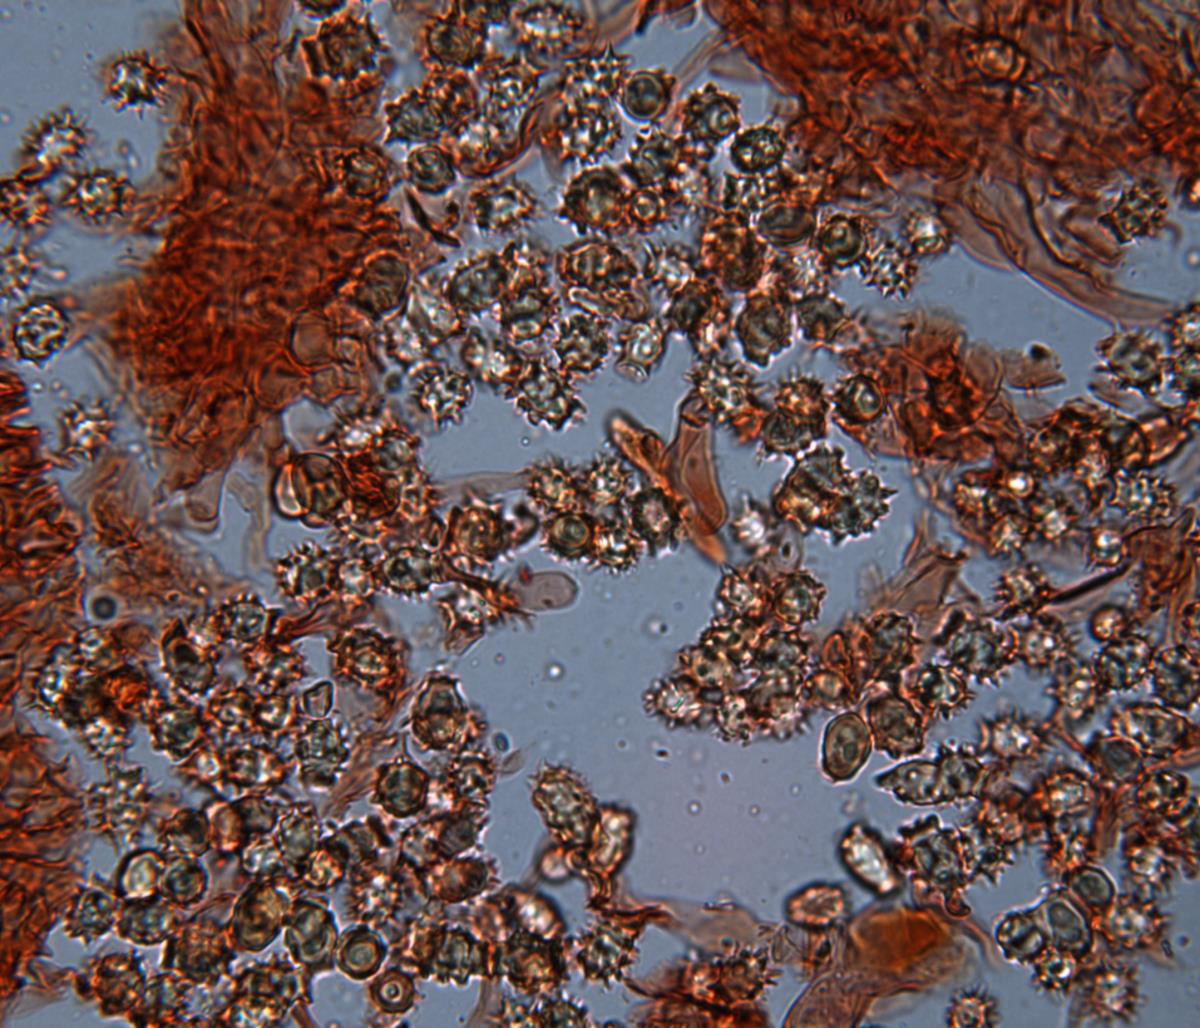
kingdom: Fungi
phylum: Basidiomycota
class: Agaricomycetes
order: Agaricales
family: Stephanosporaceae
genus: Stephanospora
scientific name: Stephanospora caroticolor
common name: Carroty false truffle
